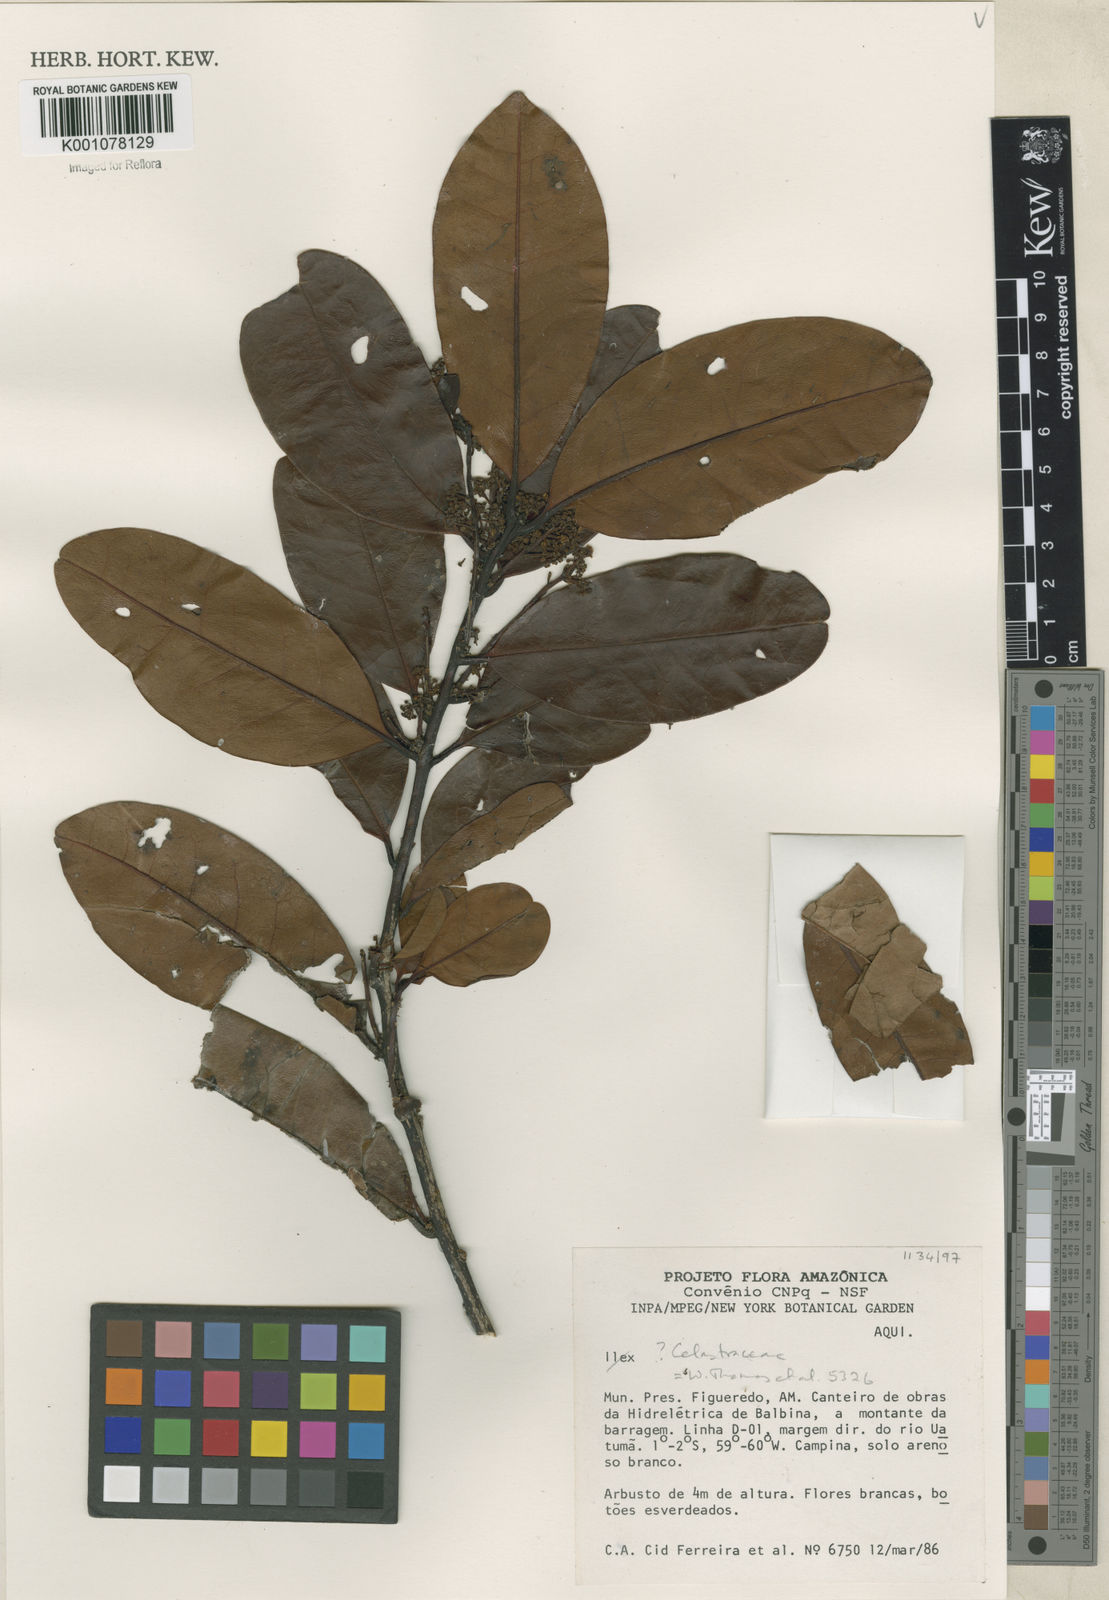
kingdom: Plantae
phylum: Tracheophyta
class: Magnoliopsida
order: Celastrales
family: Celastraceae
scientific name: Celastraceae
